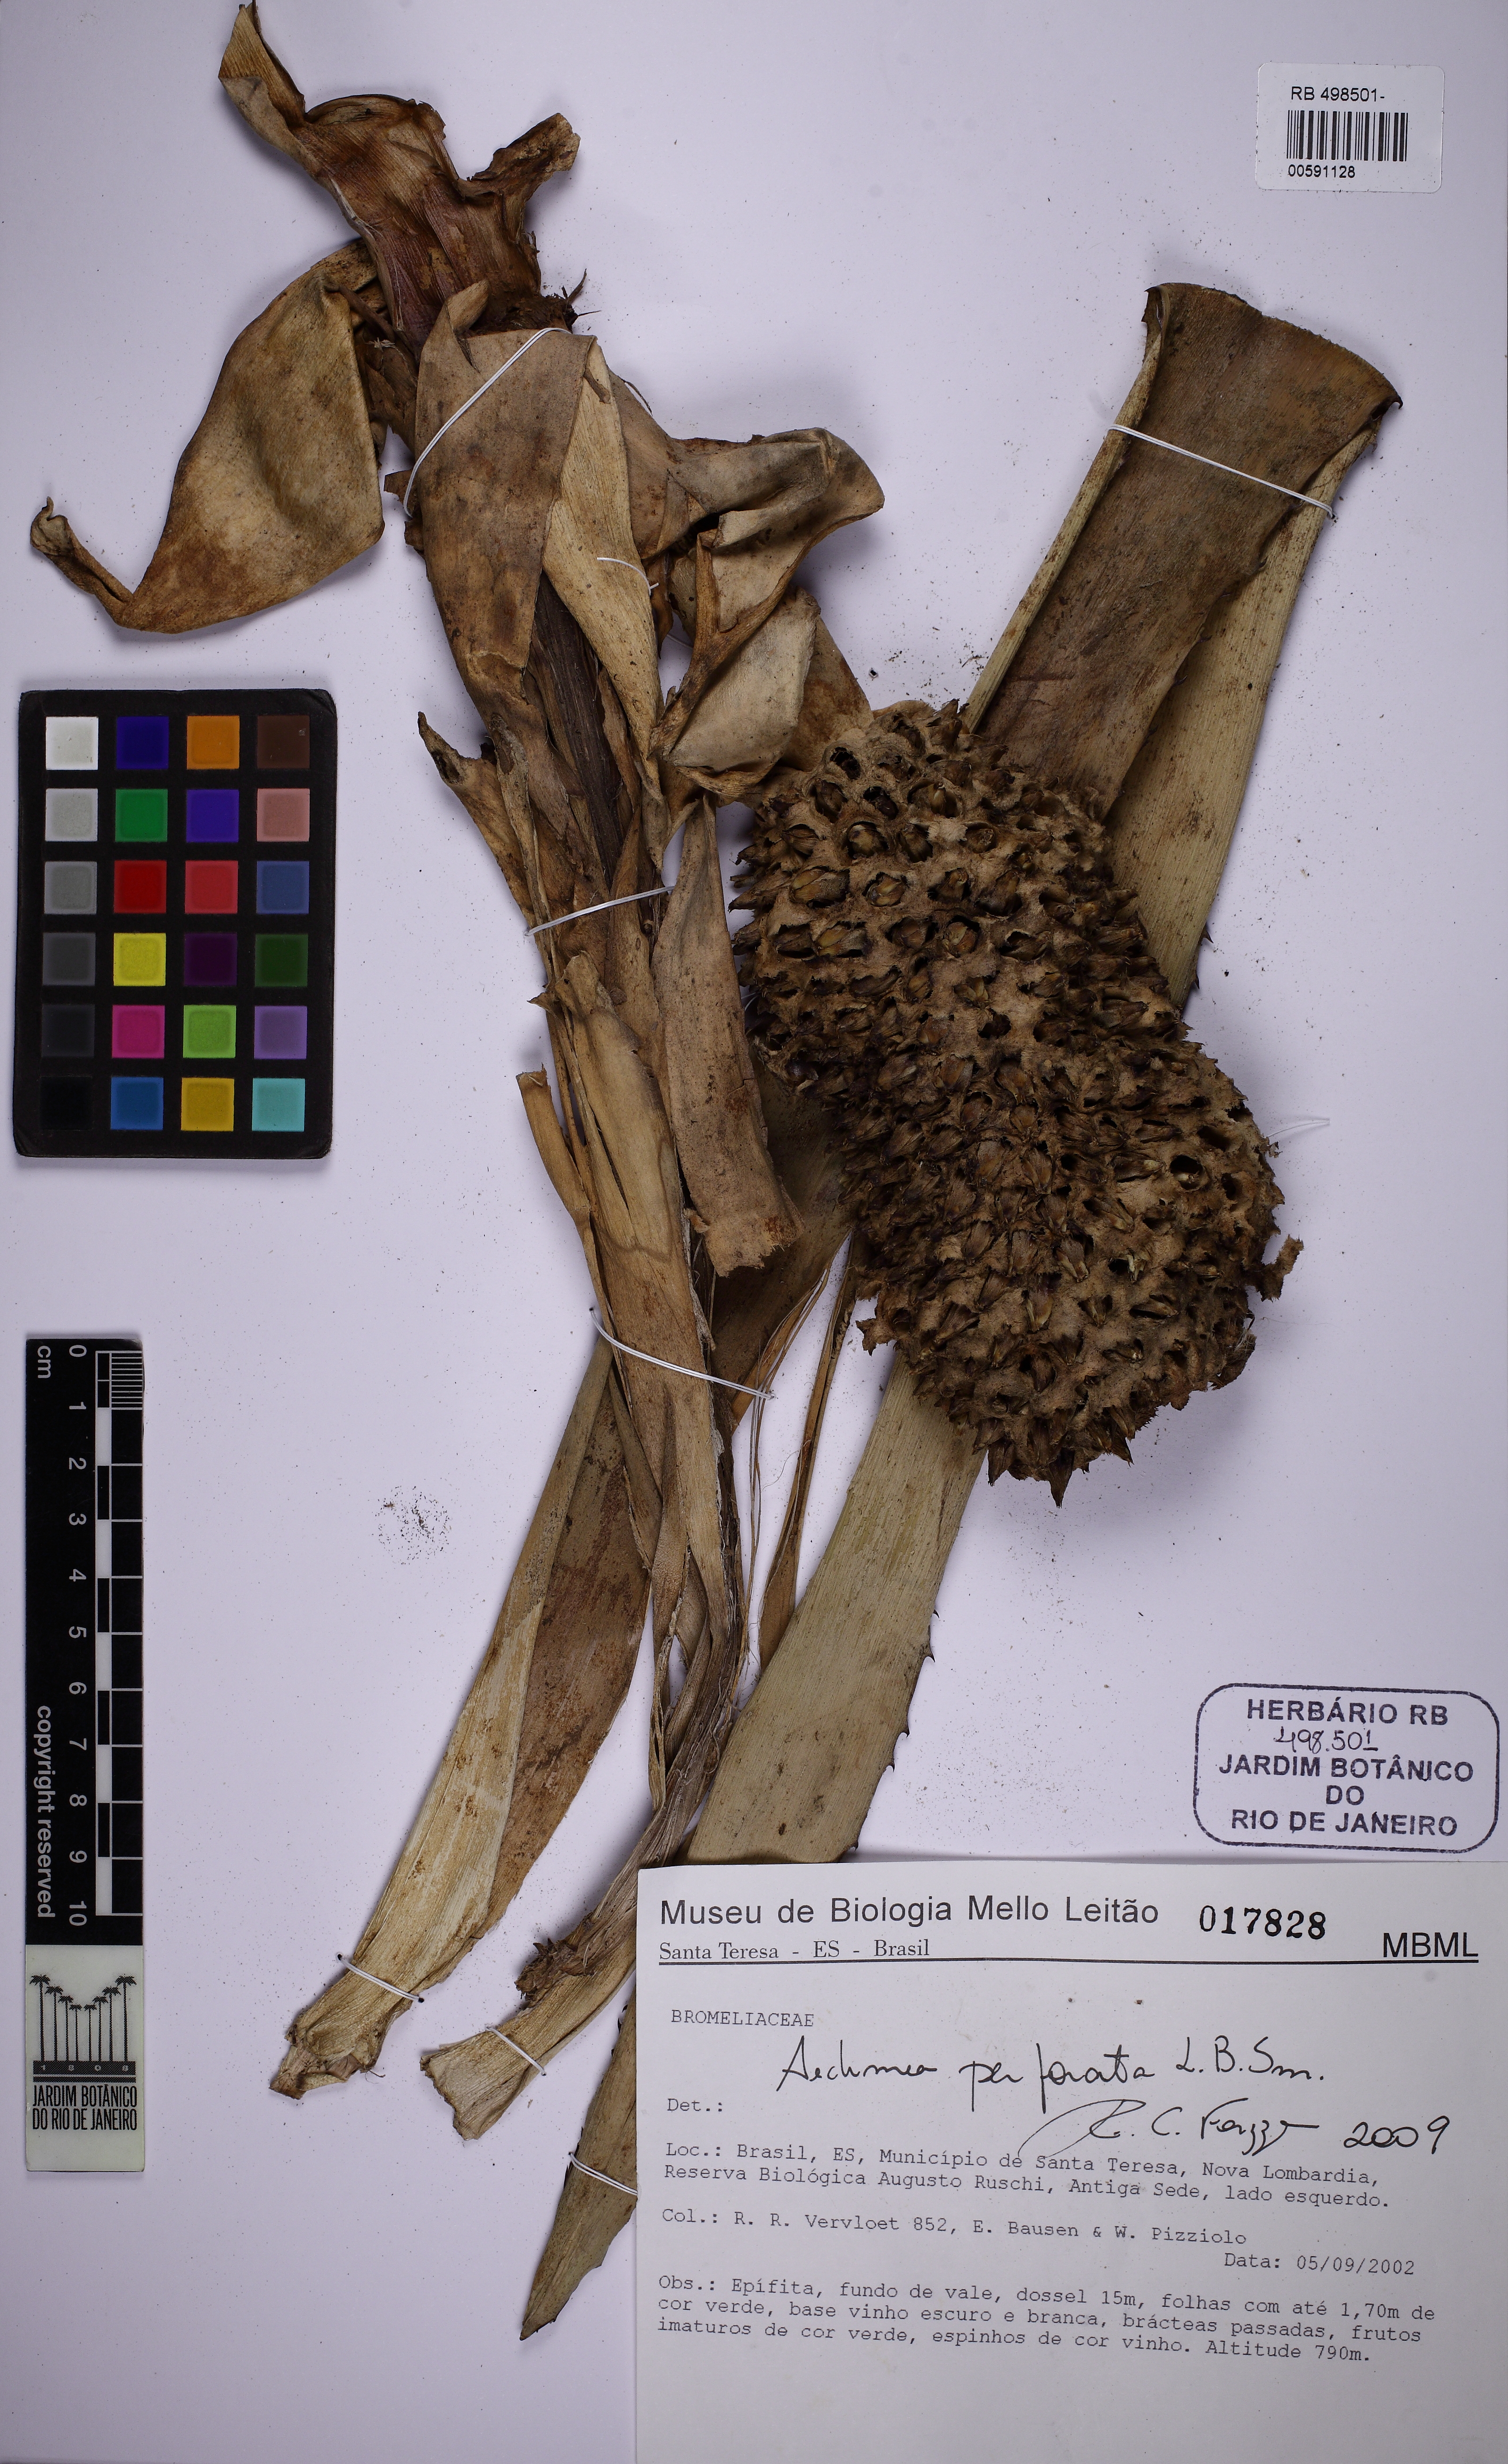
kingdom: Plantae
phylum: Tracheophyta
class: Liliopsida
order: Poales
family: Bromeliaceae
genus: Aechmea
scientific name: Aechmea perforata
